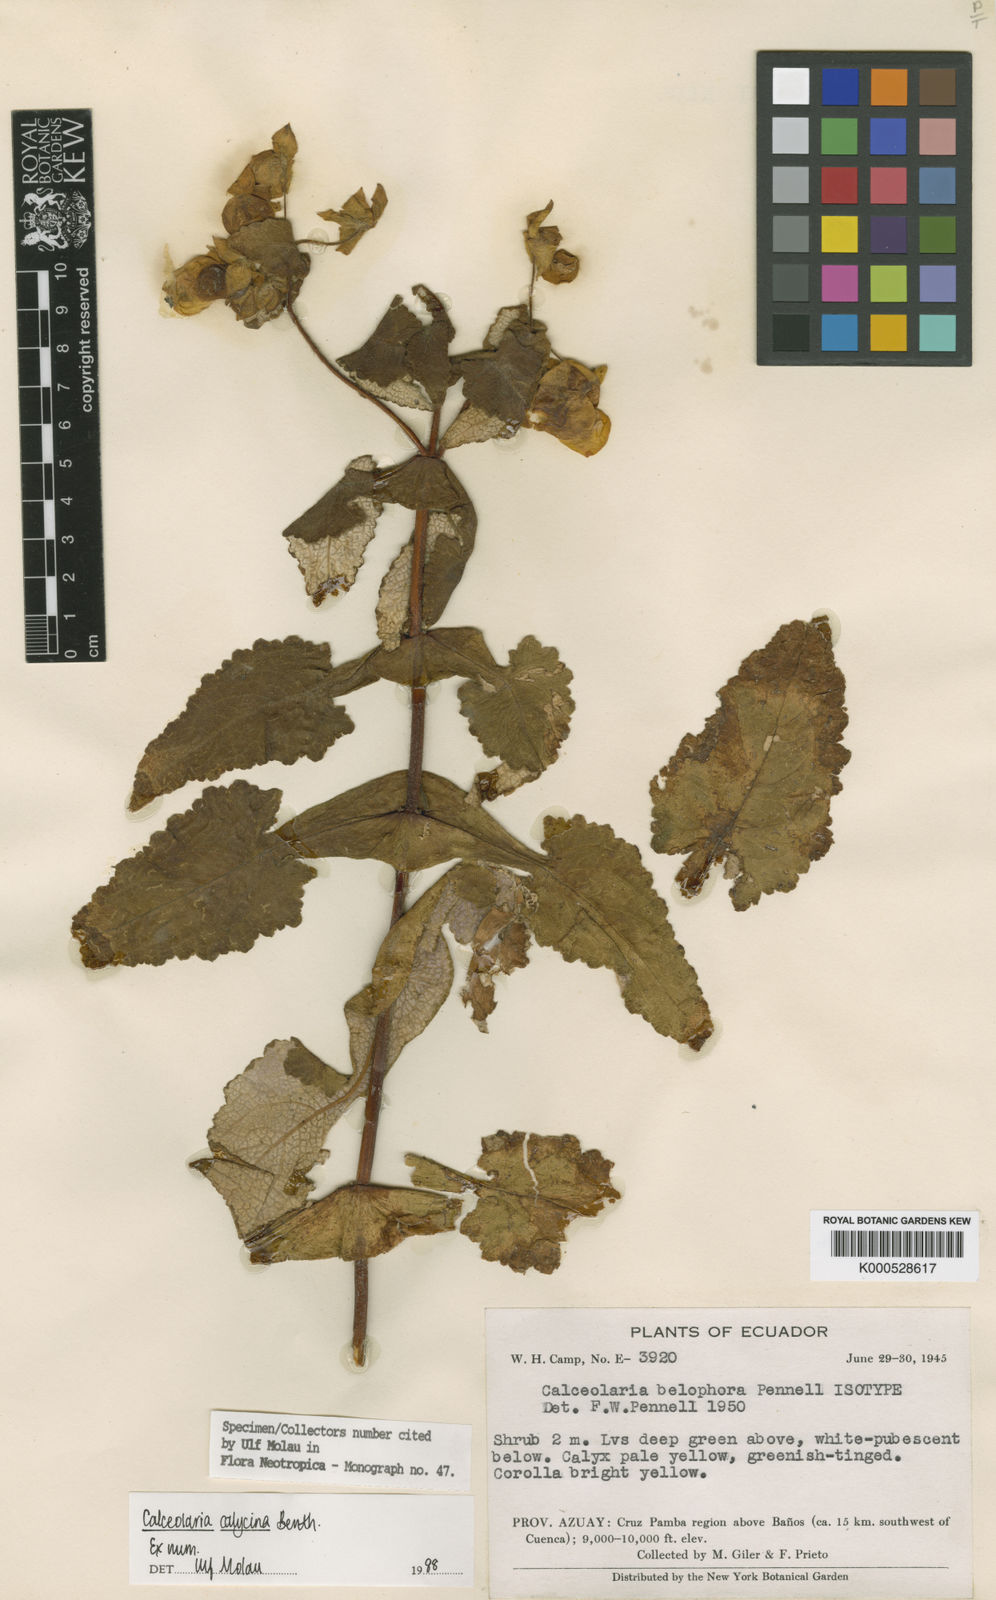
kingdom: Plantae
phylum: Tracheophyta
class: Magnoliopsida
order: Lamiales
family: Calceolariaceae
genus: Calceolaria
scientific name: Calceolaria calycina
